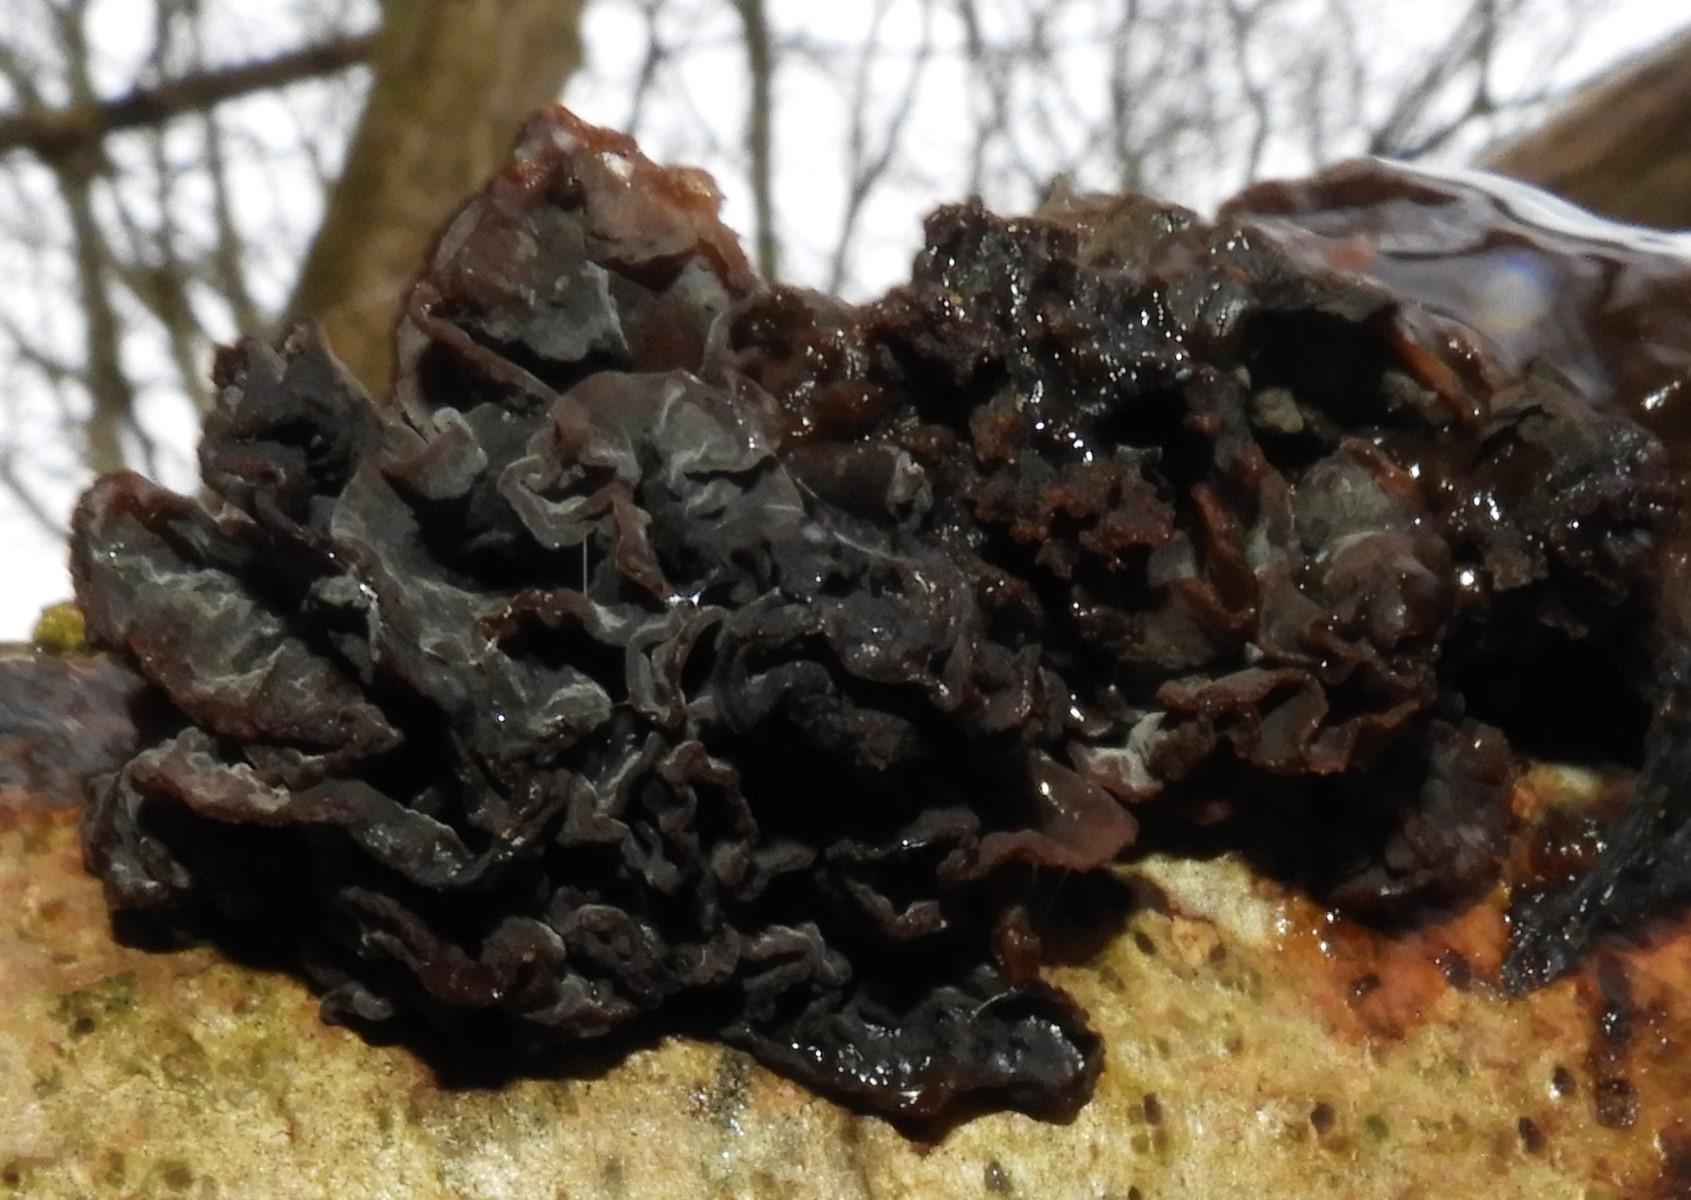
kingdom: Fungi
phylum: Basidiomycota
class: Tremellomycetes
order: Tremellales
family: Tremellaceae
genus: Phaeotremella
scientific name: Phaeotremella frondosa
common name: kæmpe-bævresvamp
